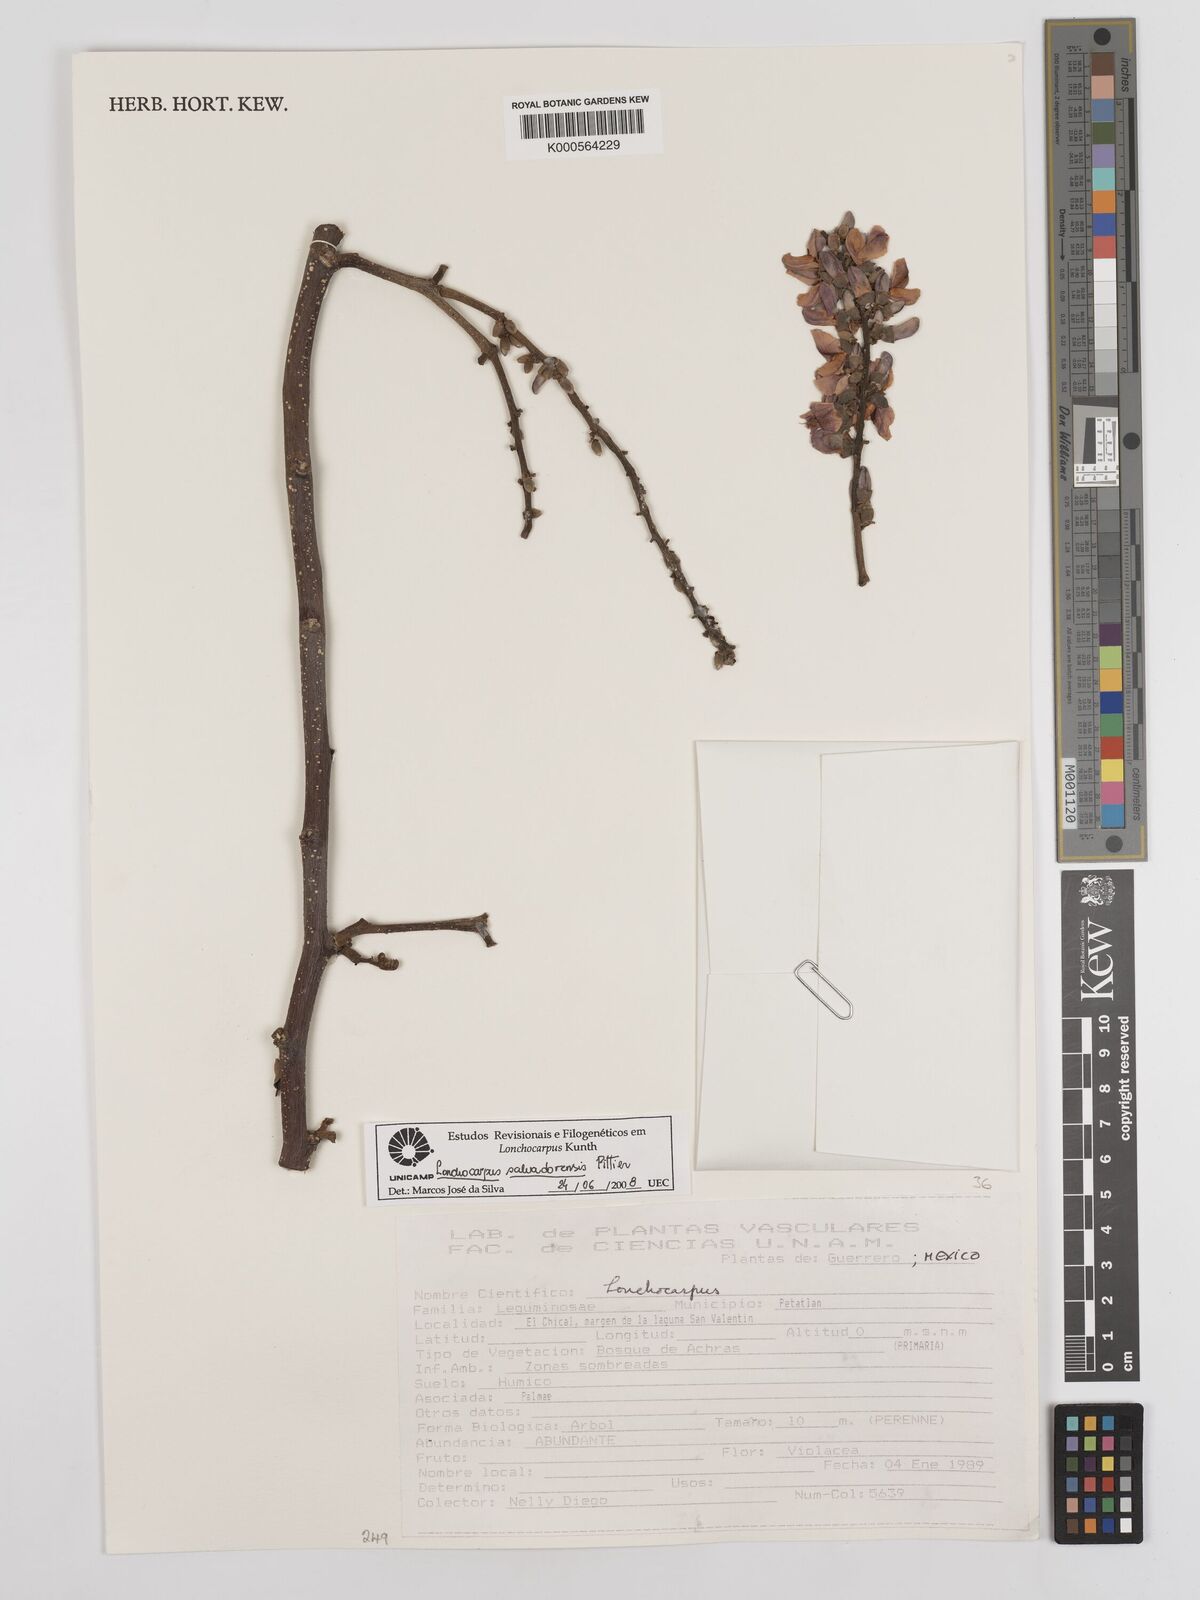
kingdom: Plantae
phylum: Tracheophyta
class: Magnoliopsida
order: Fabales
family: Fabaceae
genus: Lonchocarpus
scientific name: Lonchocarpus salvadorensis
